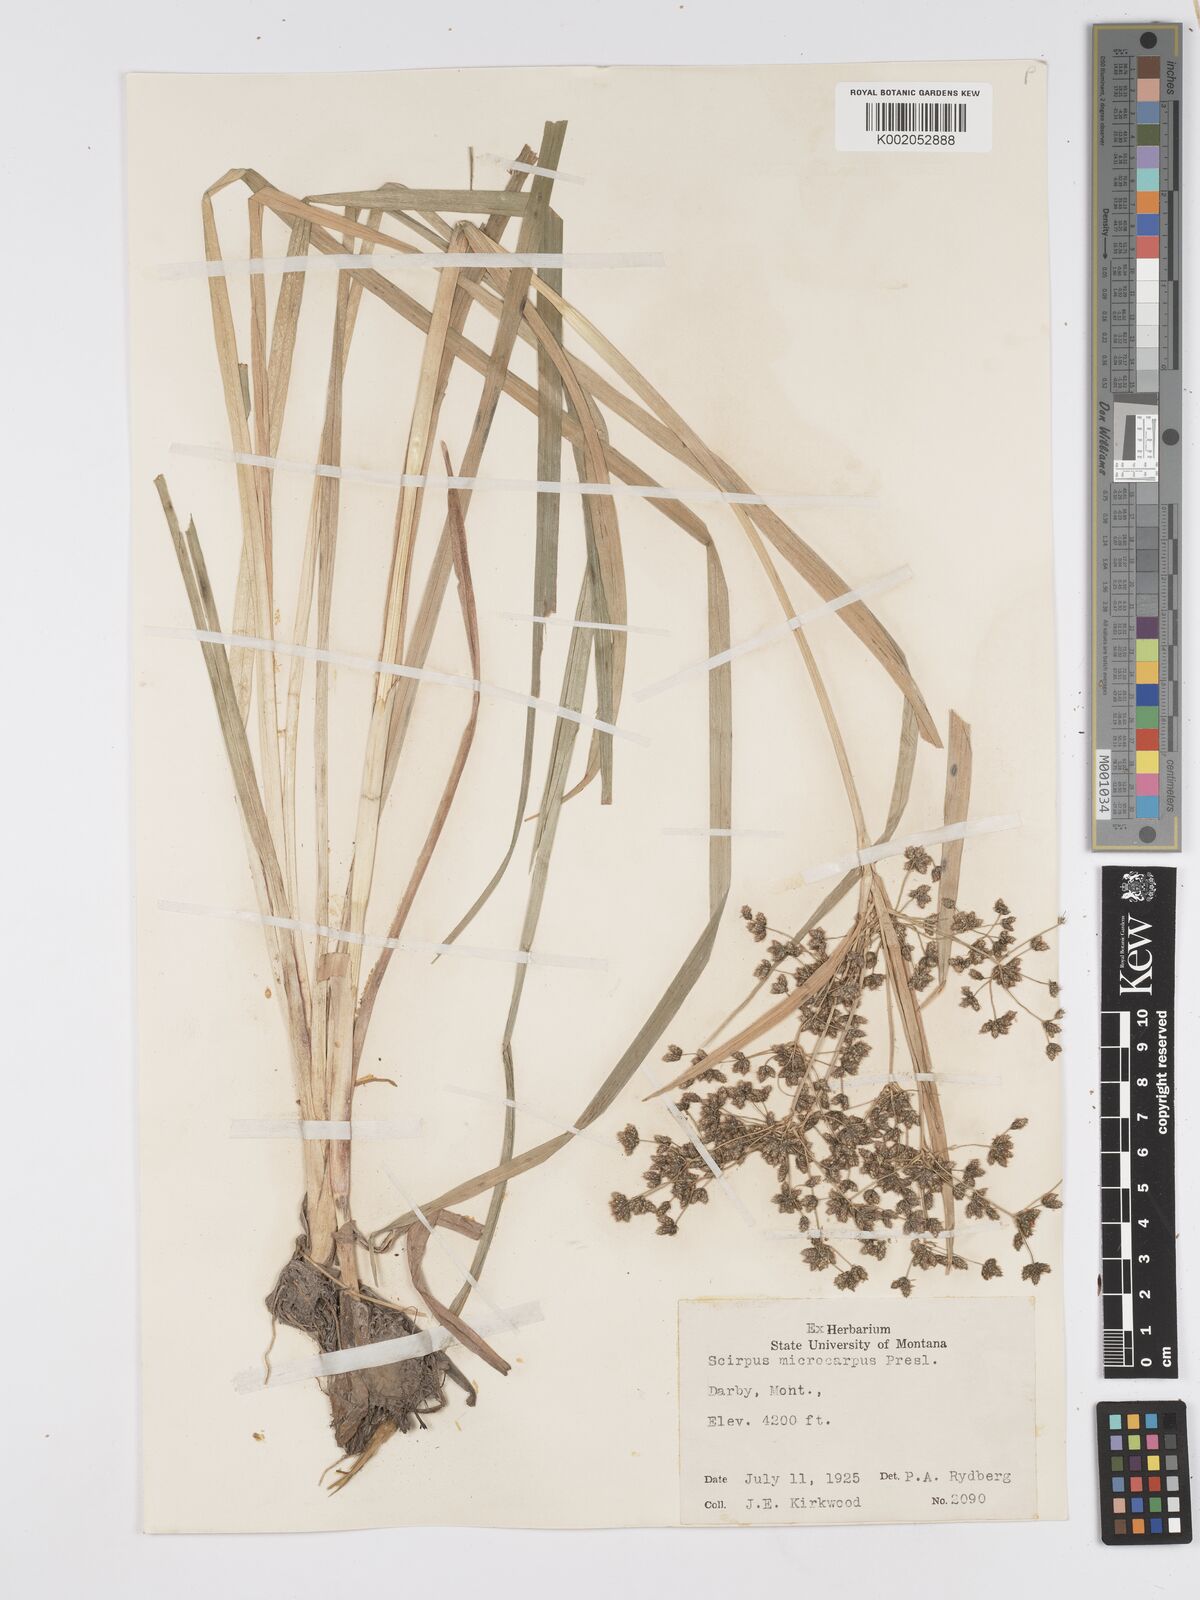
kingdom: Plantae
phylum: Tracheophyta
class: Liliopsida
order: Poales
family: Cyperaceae
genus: Scirpus
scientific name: Scirpus microcarpus
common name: Panicled bulrush
